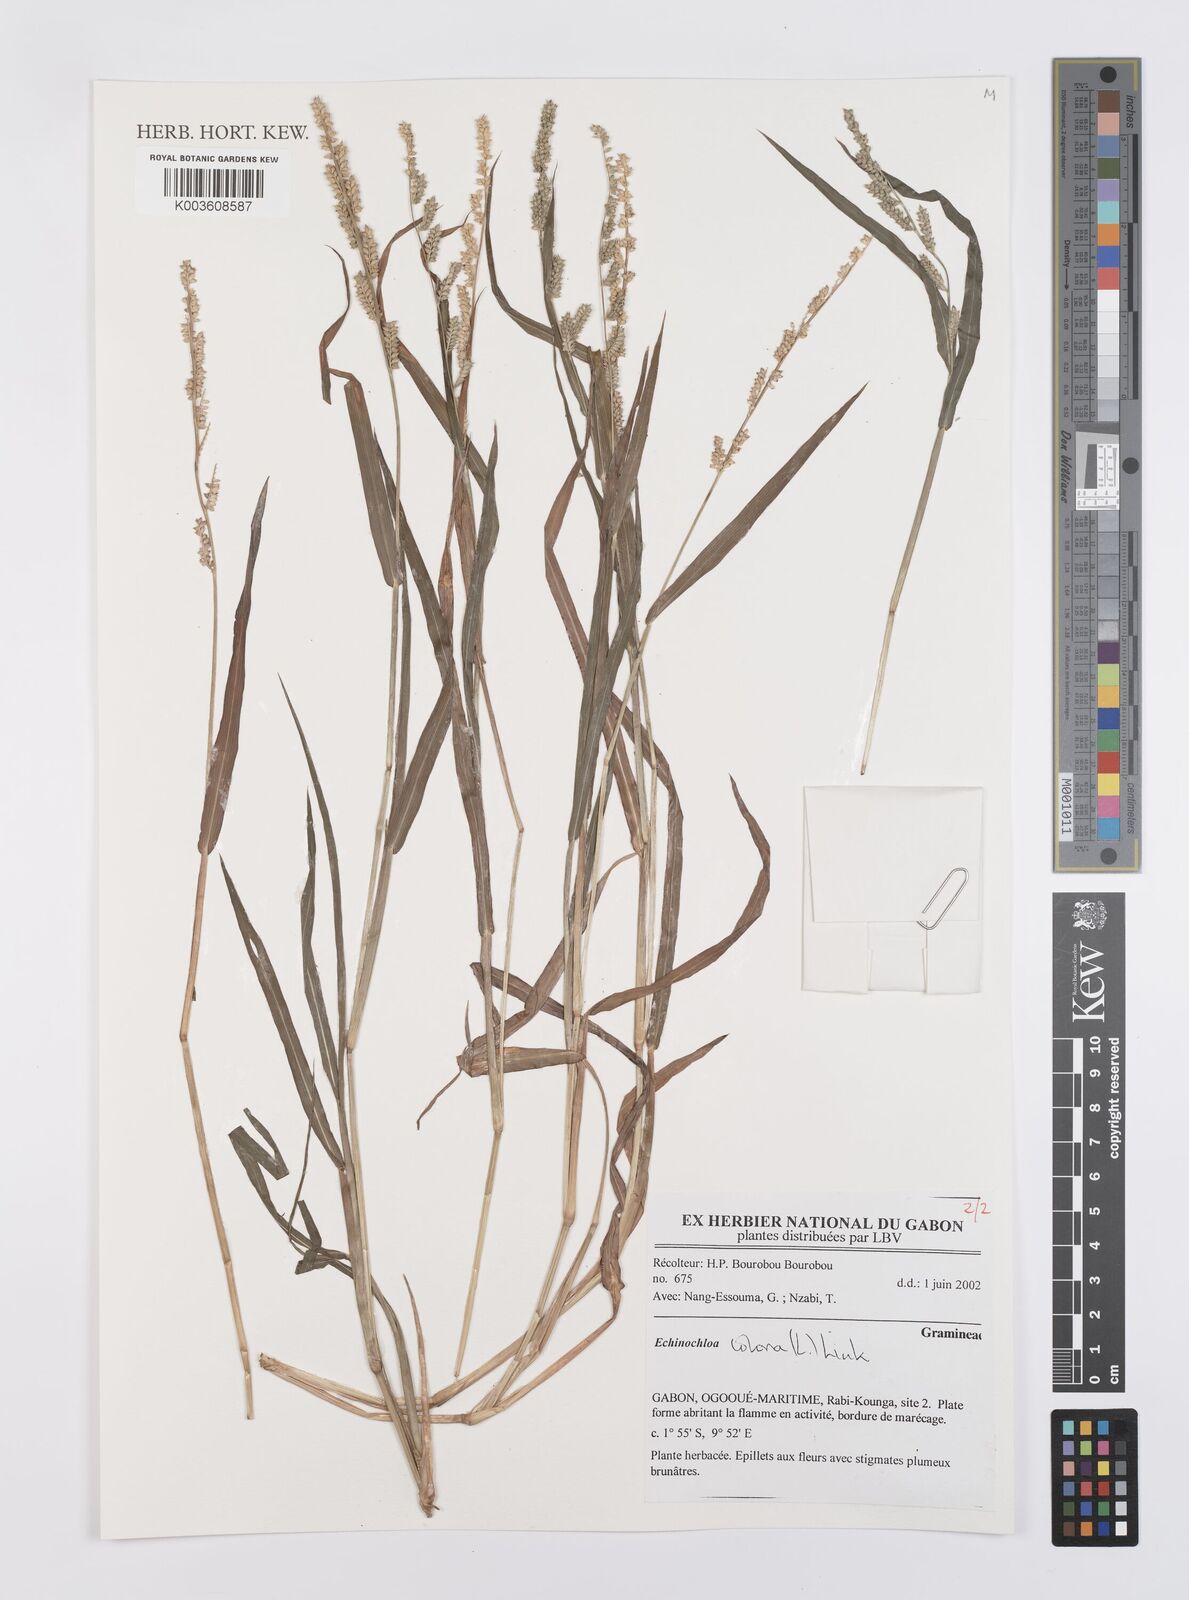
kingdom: Plantae
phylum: Tracheophyta
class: Liliopsida
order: Poales
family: Poaceae
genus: Echinochloa
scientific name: Echinochloa colonum
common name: Jungle rice
